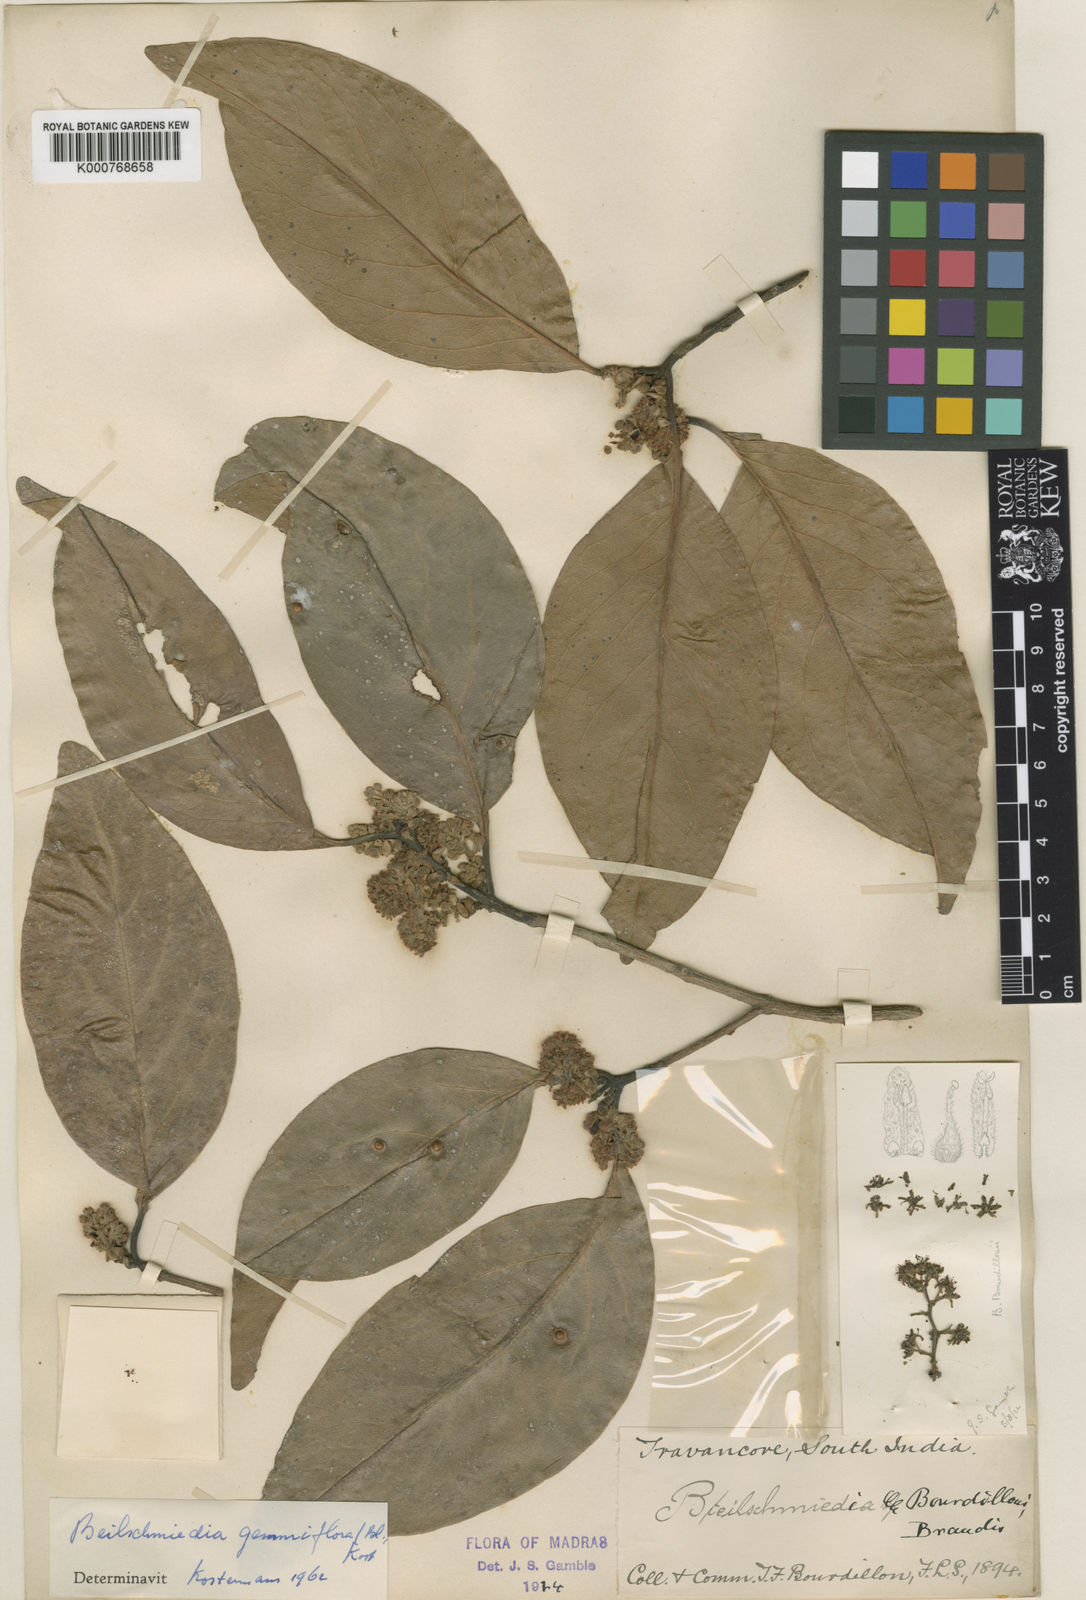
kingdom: Plantae
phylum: Tracheophyta
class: Magnoliopsida
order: Laurales
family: Lauraceae
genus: Beilschmiedia
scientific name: Beilschmiedia bourdillonii
